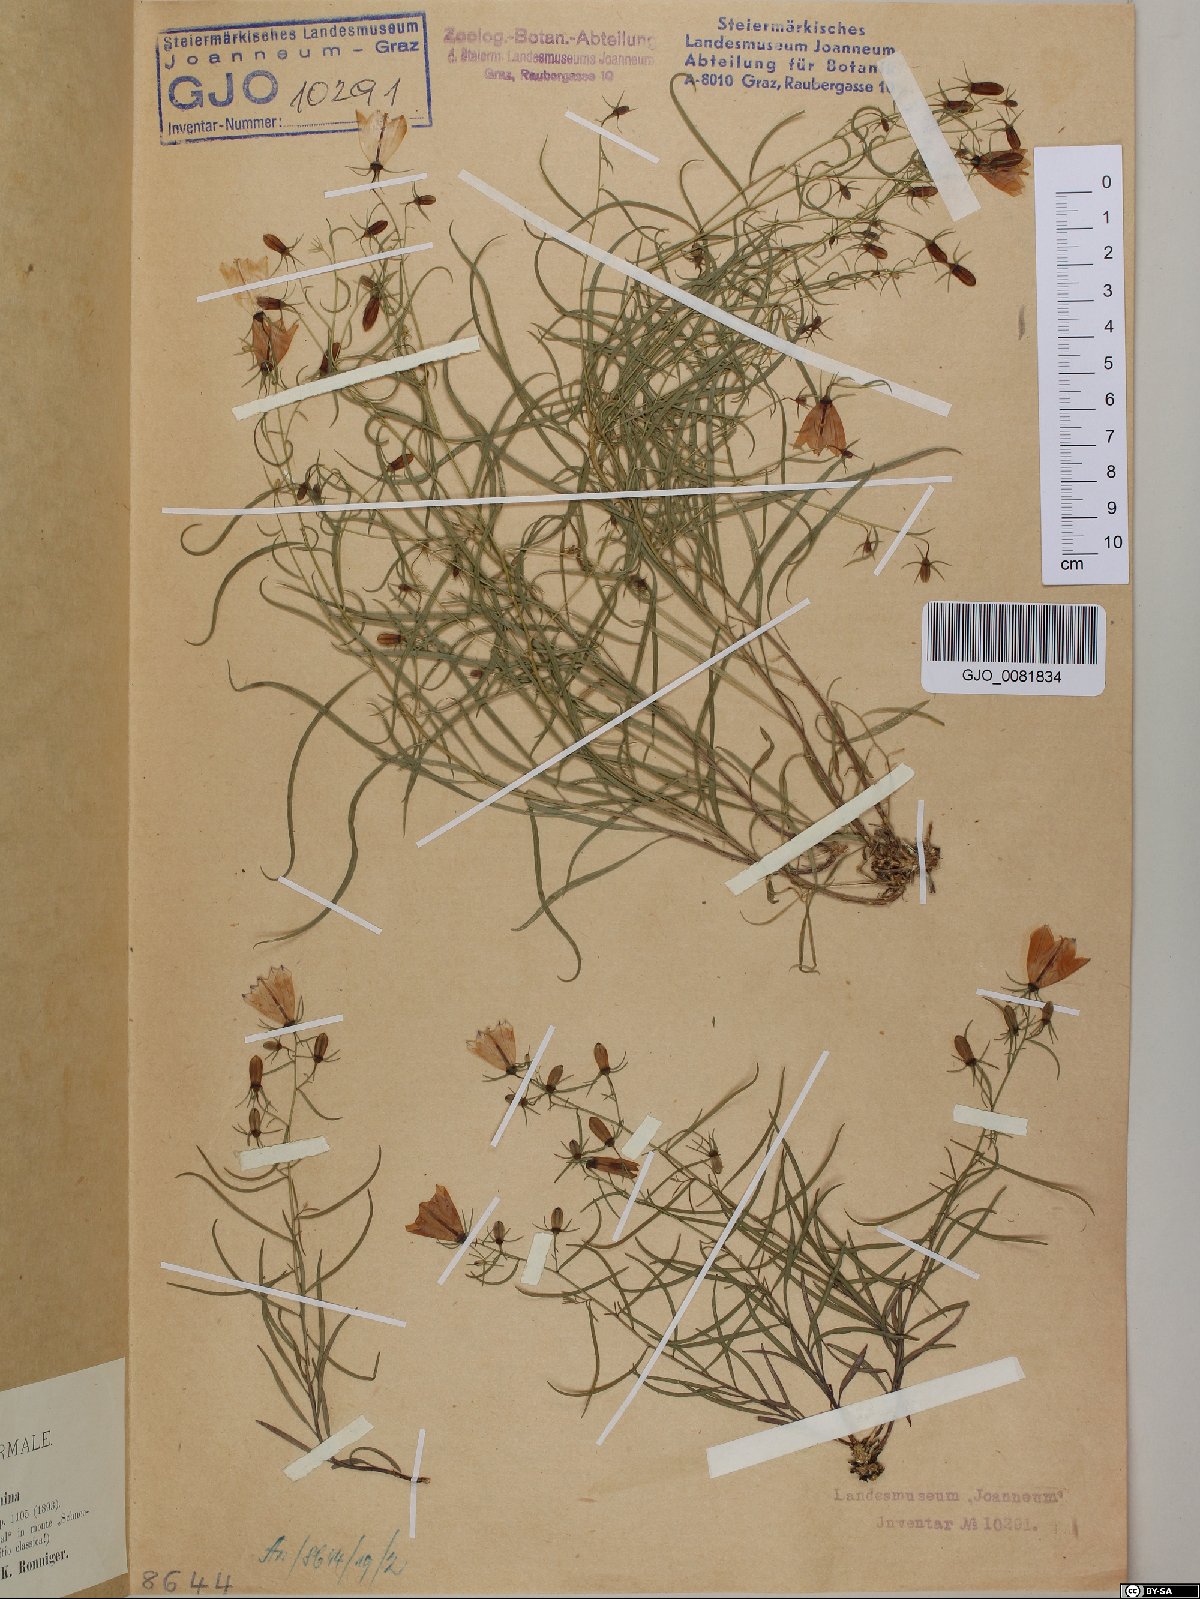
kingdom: Plantae
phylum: Tracheophyta
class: Magnoliopsida
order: Asterales
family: Campanulaceae
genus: Campanula
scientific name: Campanula breynina
